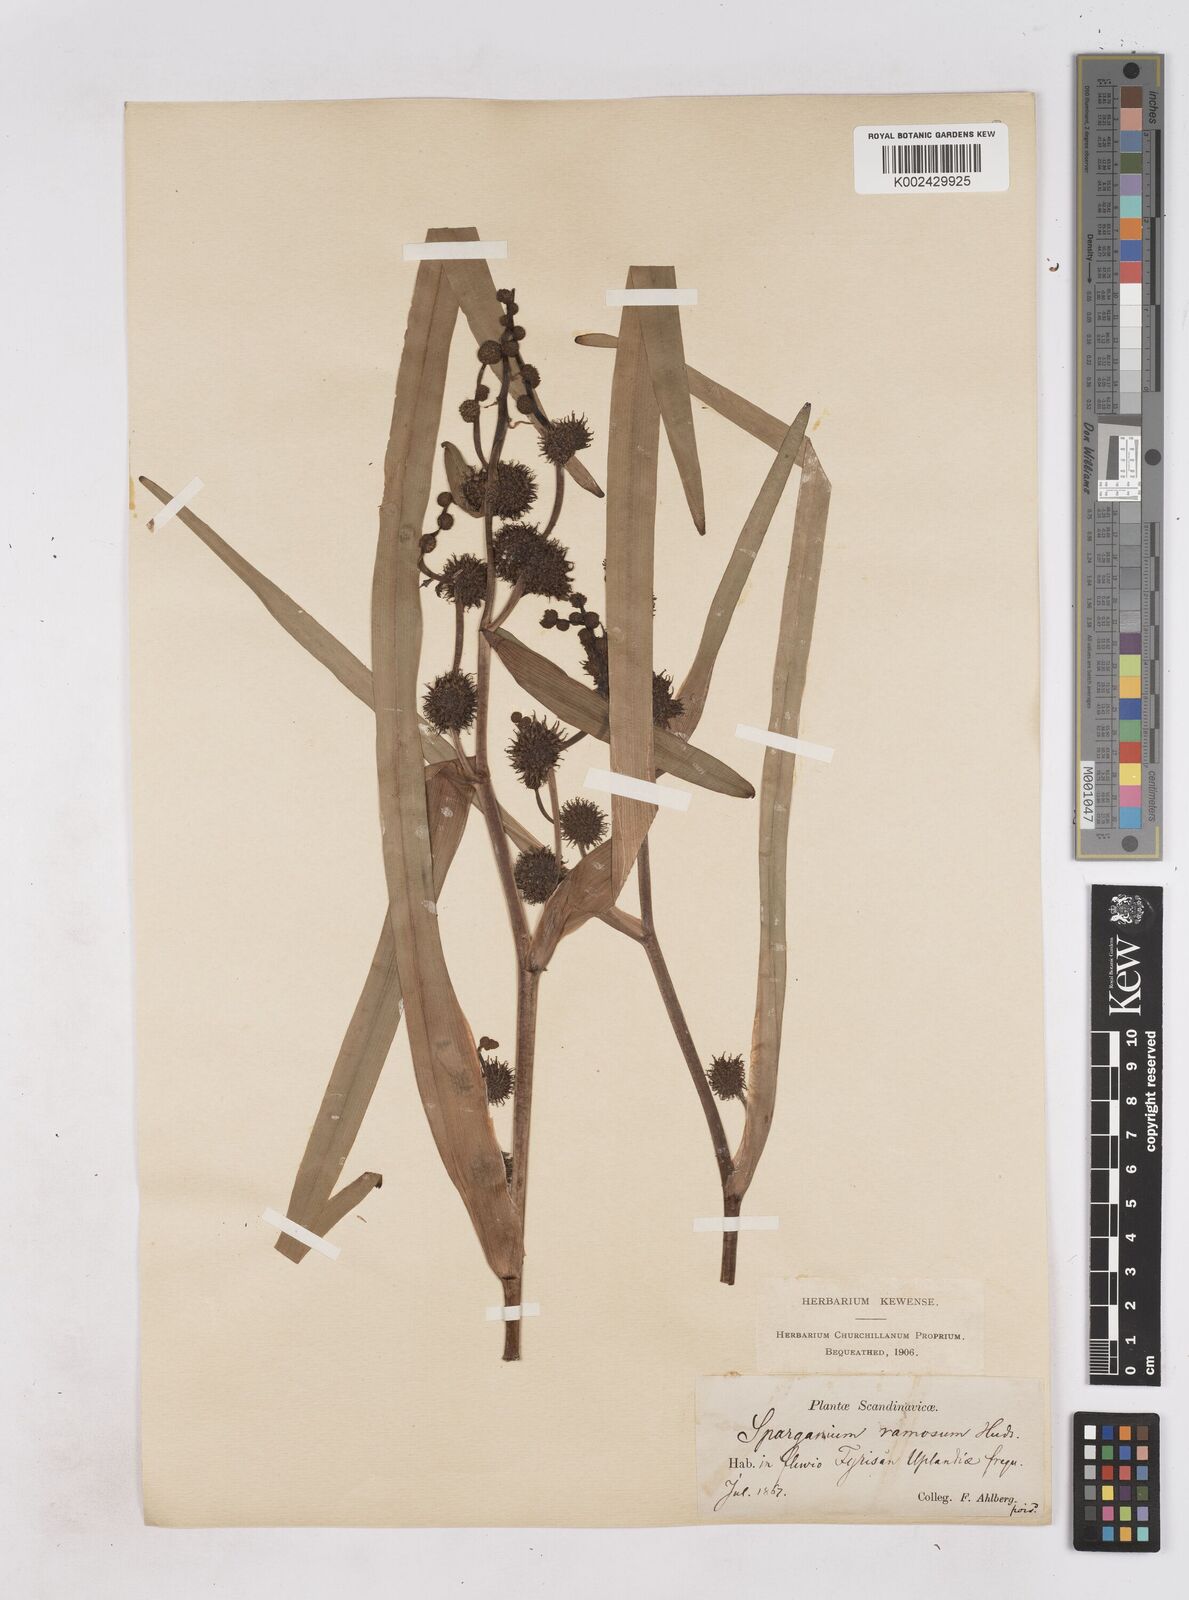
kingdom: Plantae
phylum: Tracheophyta
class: Liliopsida
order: Poales
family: Typhaceae
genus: Sparganium
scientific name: Sparganium erectum
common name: Branched bur-reed
